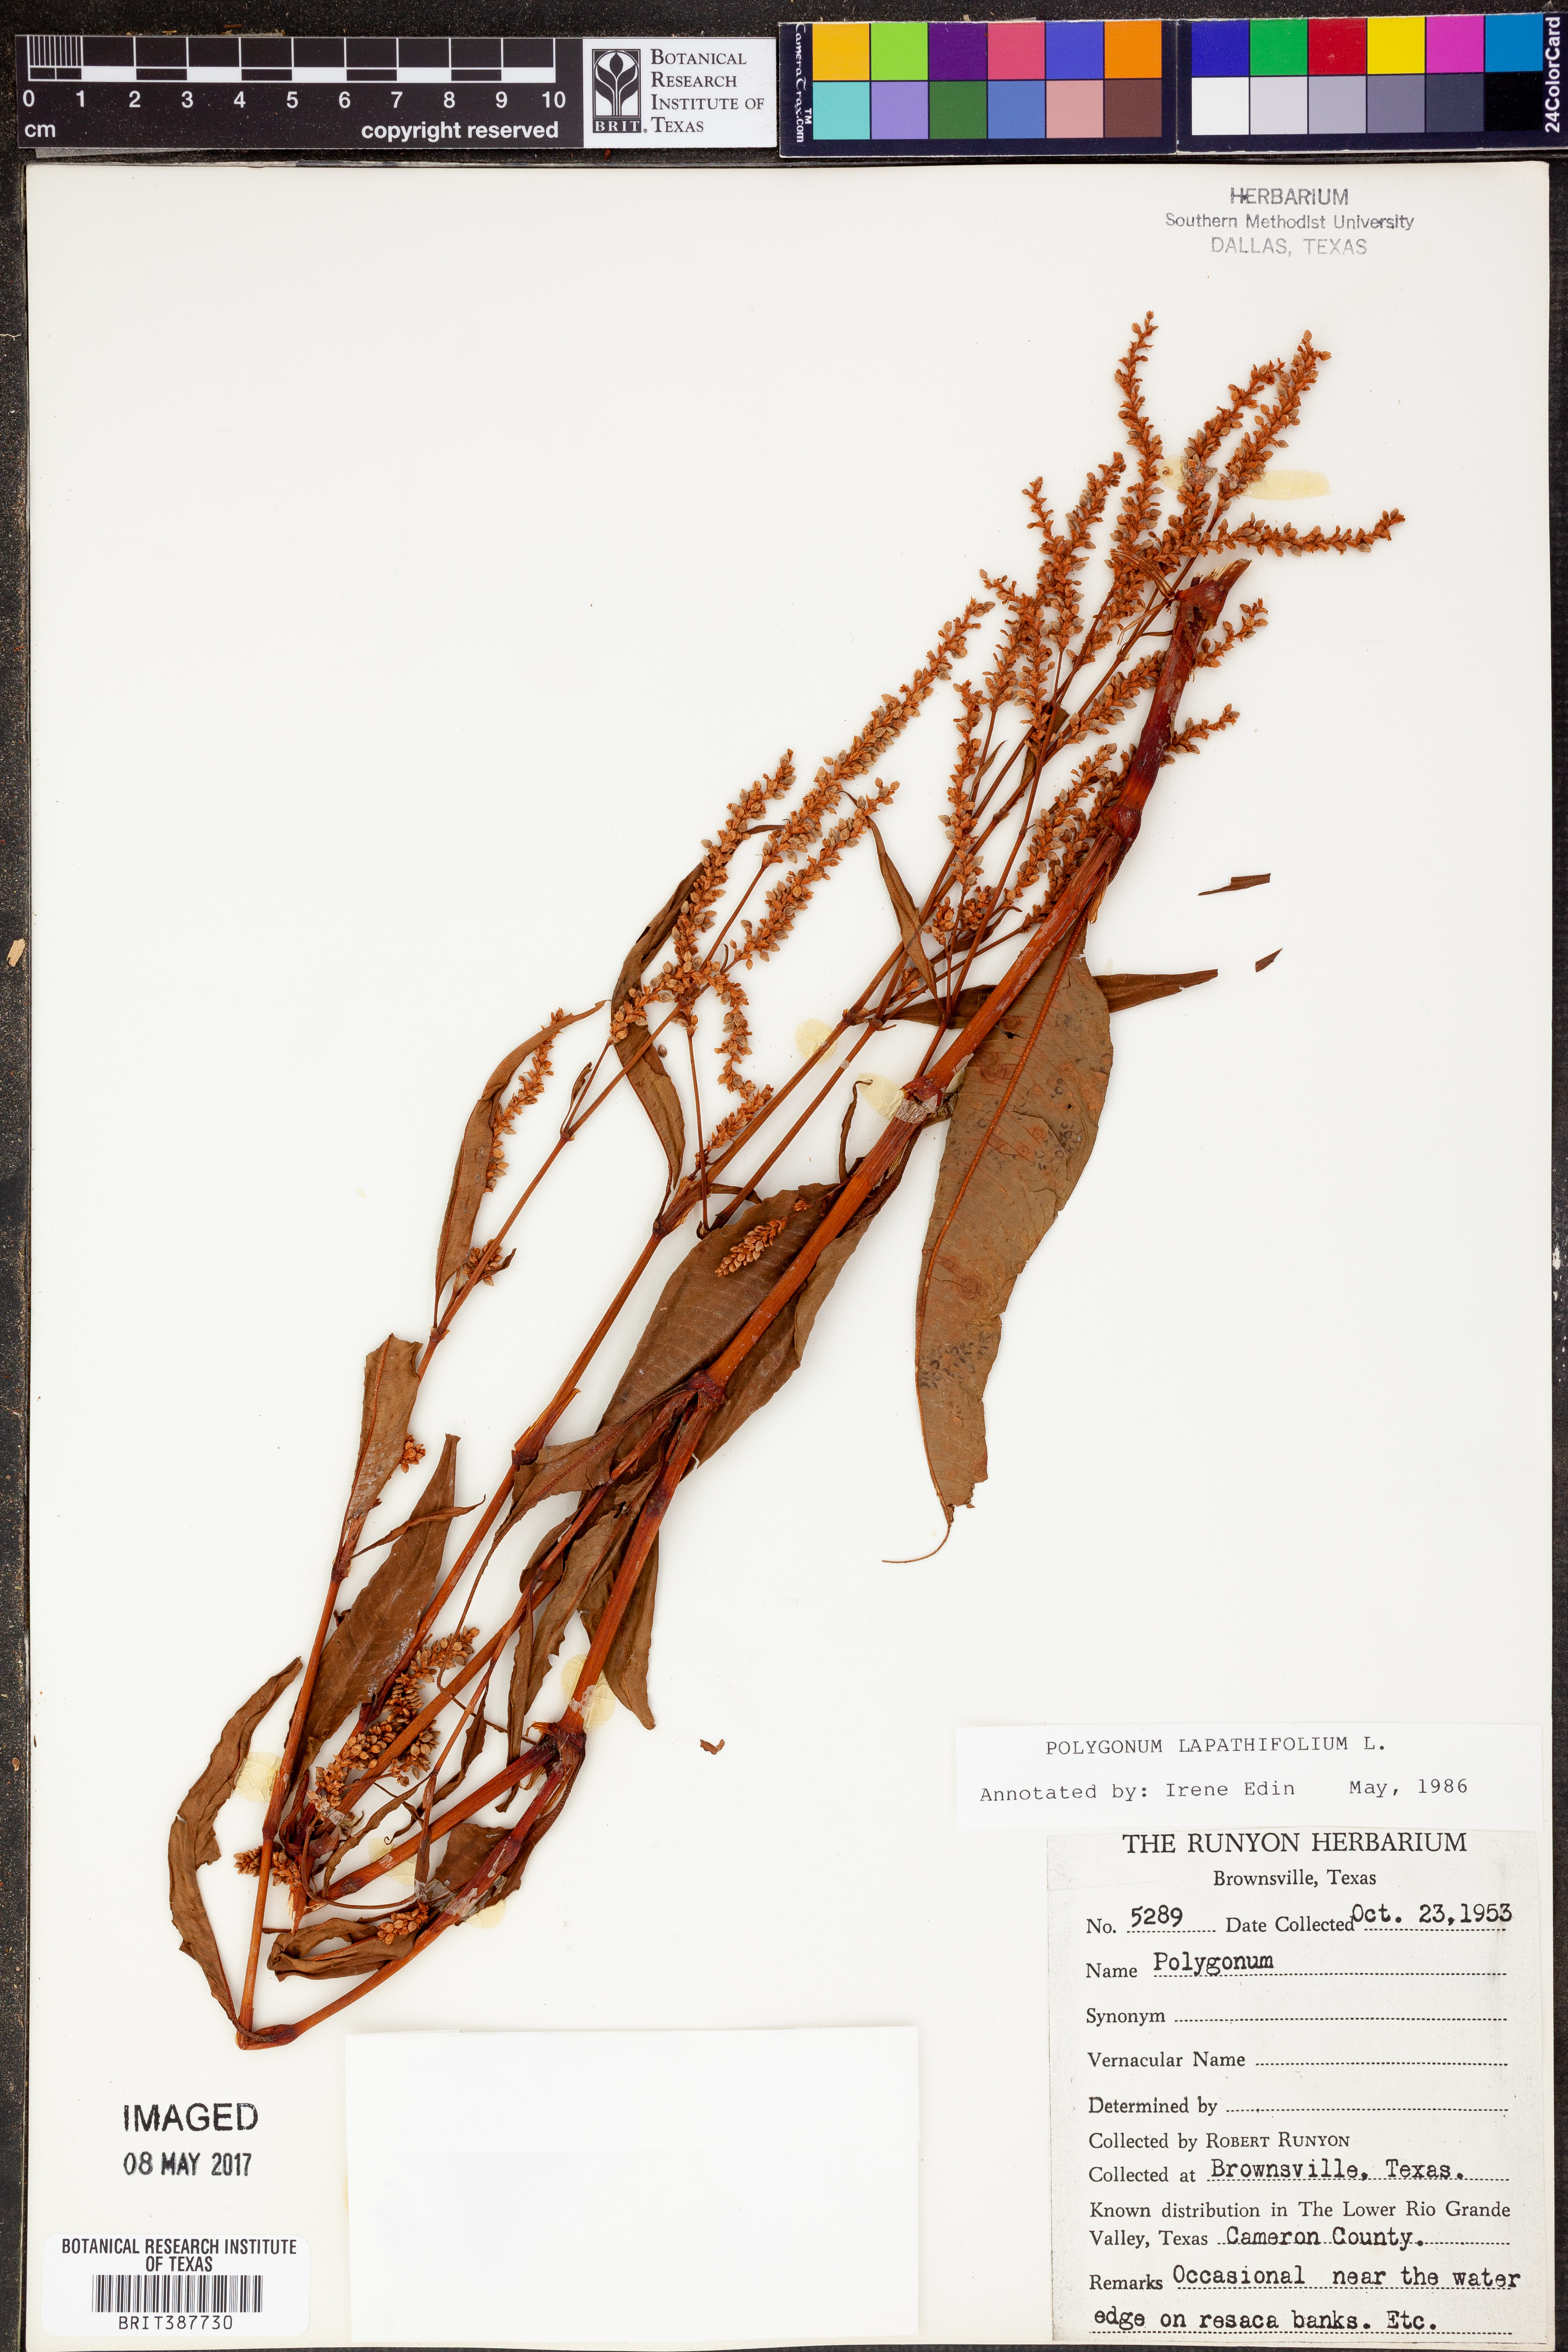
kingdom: Plantae
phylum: Tracheophyta
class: Magnoliopsida
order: Caryophyllales
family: Polygonaceae
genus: Persicaria
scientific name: Persicaria lapathifolia
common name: Curlytop knotweed
